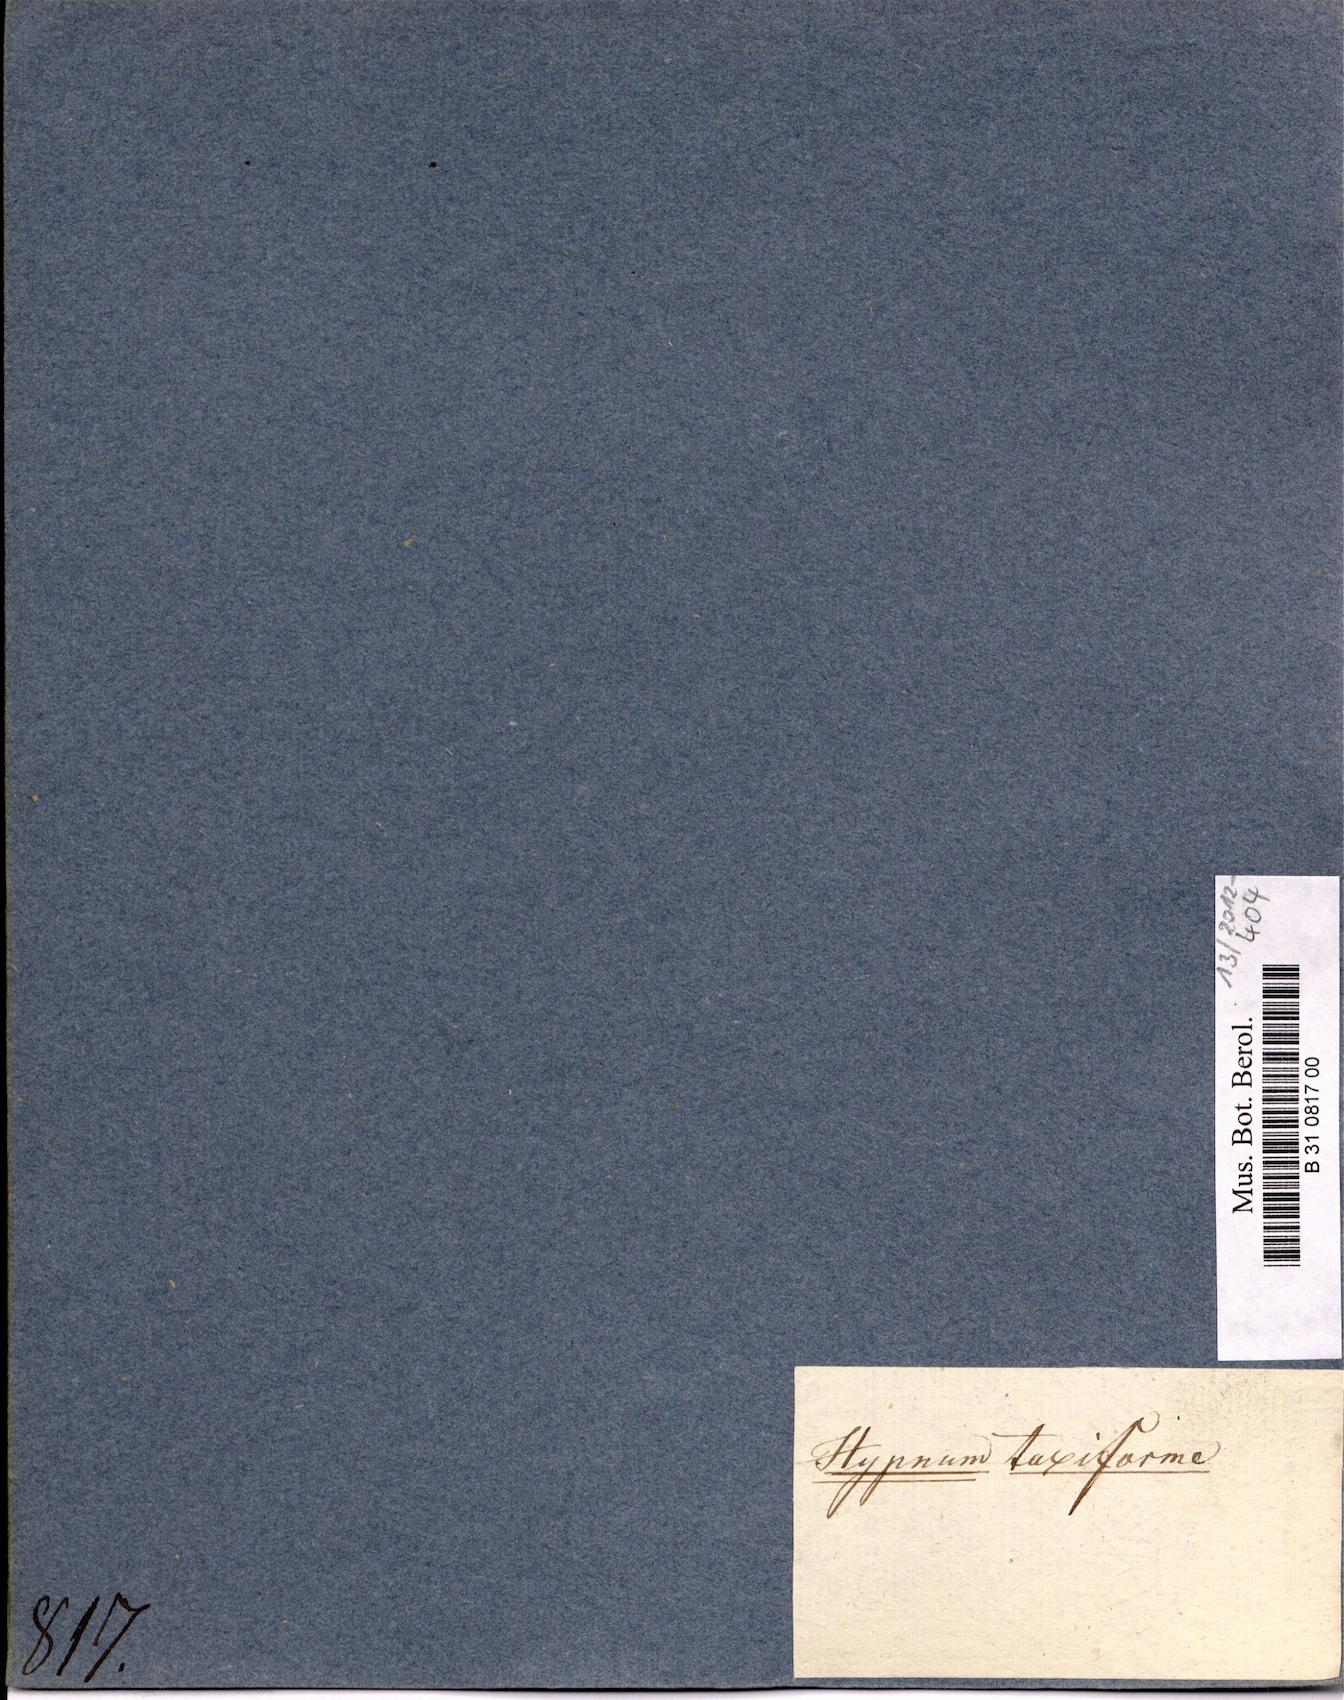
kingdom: Plantae
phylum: Bryophyta
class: Bryopsida
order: Hypnales
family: Hypnaceae
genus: Ectropothecium
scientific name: Ectropothecium taxiforme
